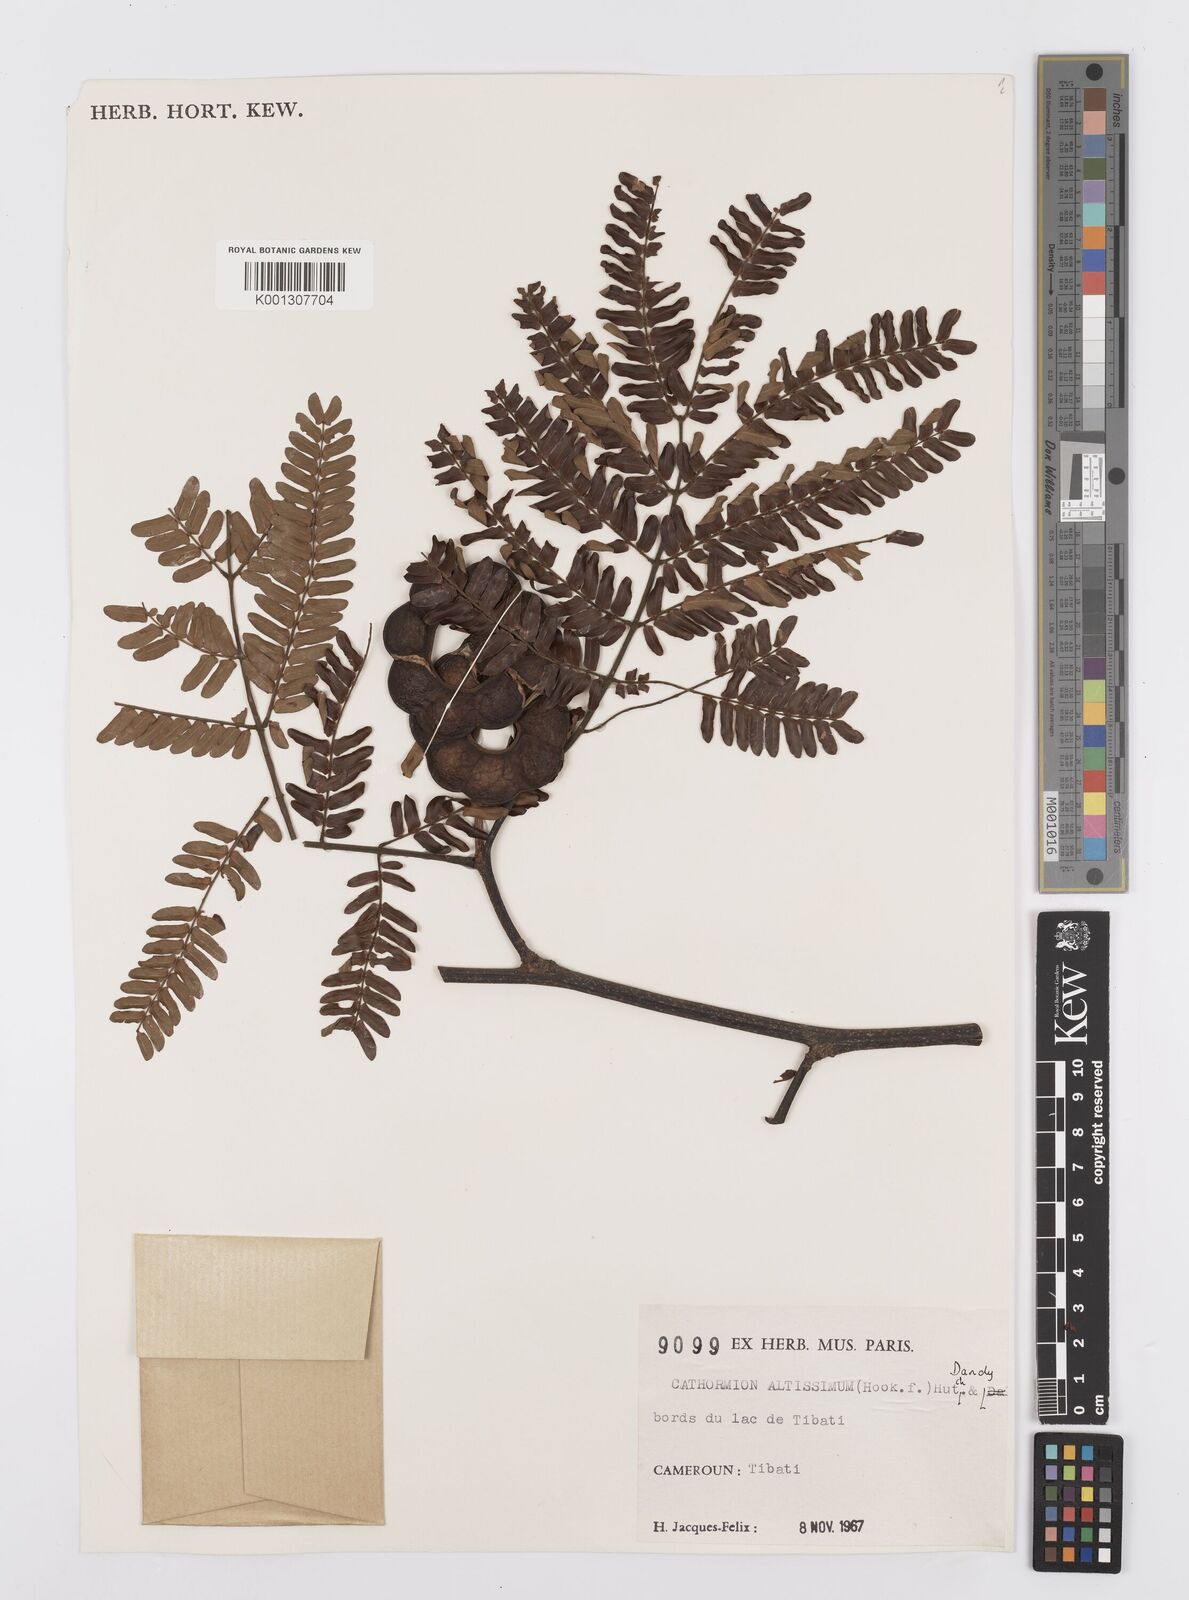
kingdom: Plantae
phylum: Tracheophyta
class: Magnoliopsida
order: Fabales
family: Fabaceae
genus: Albizia
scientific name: Albizia altissima
